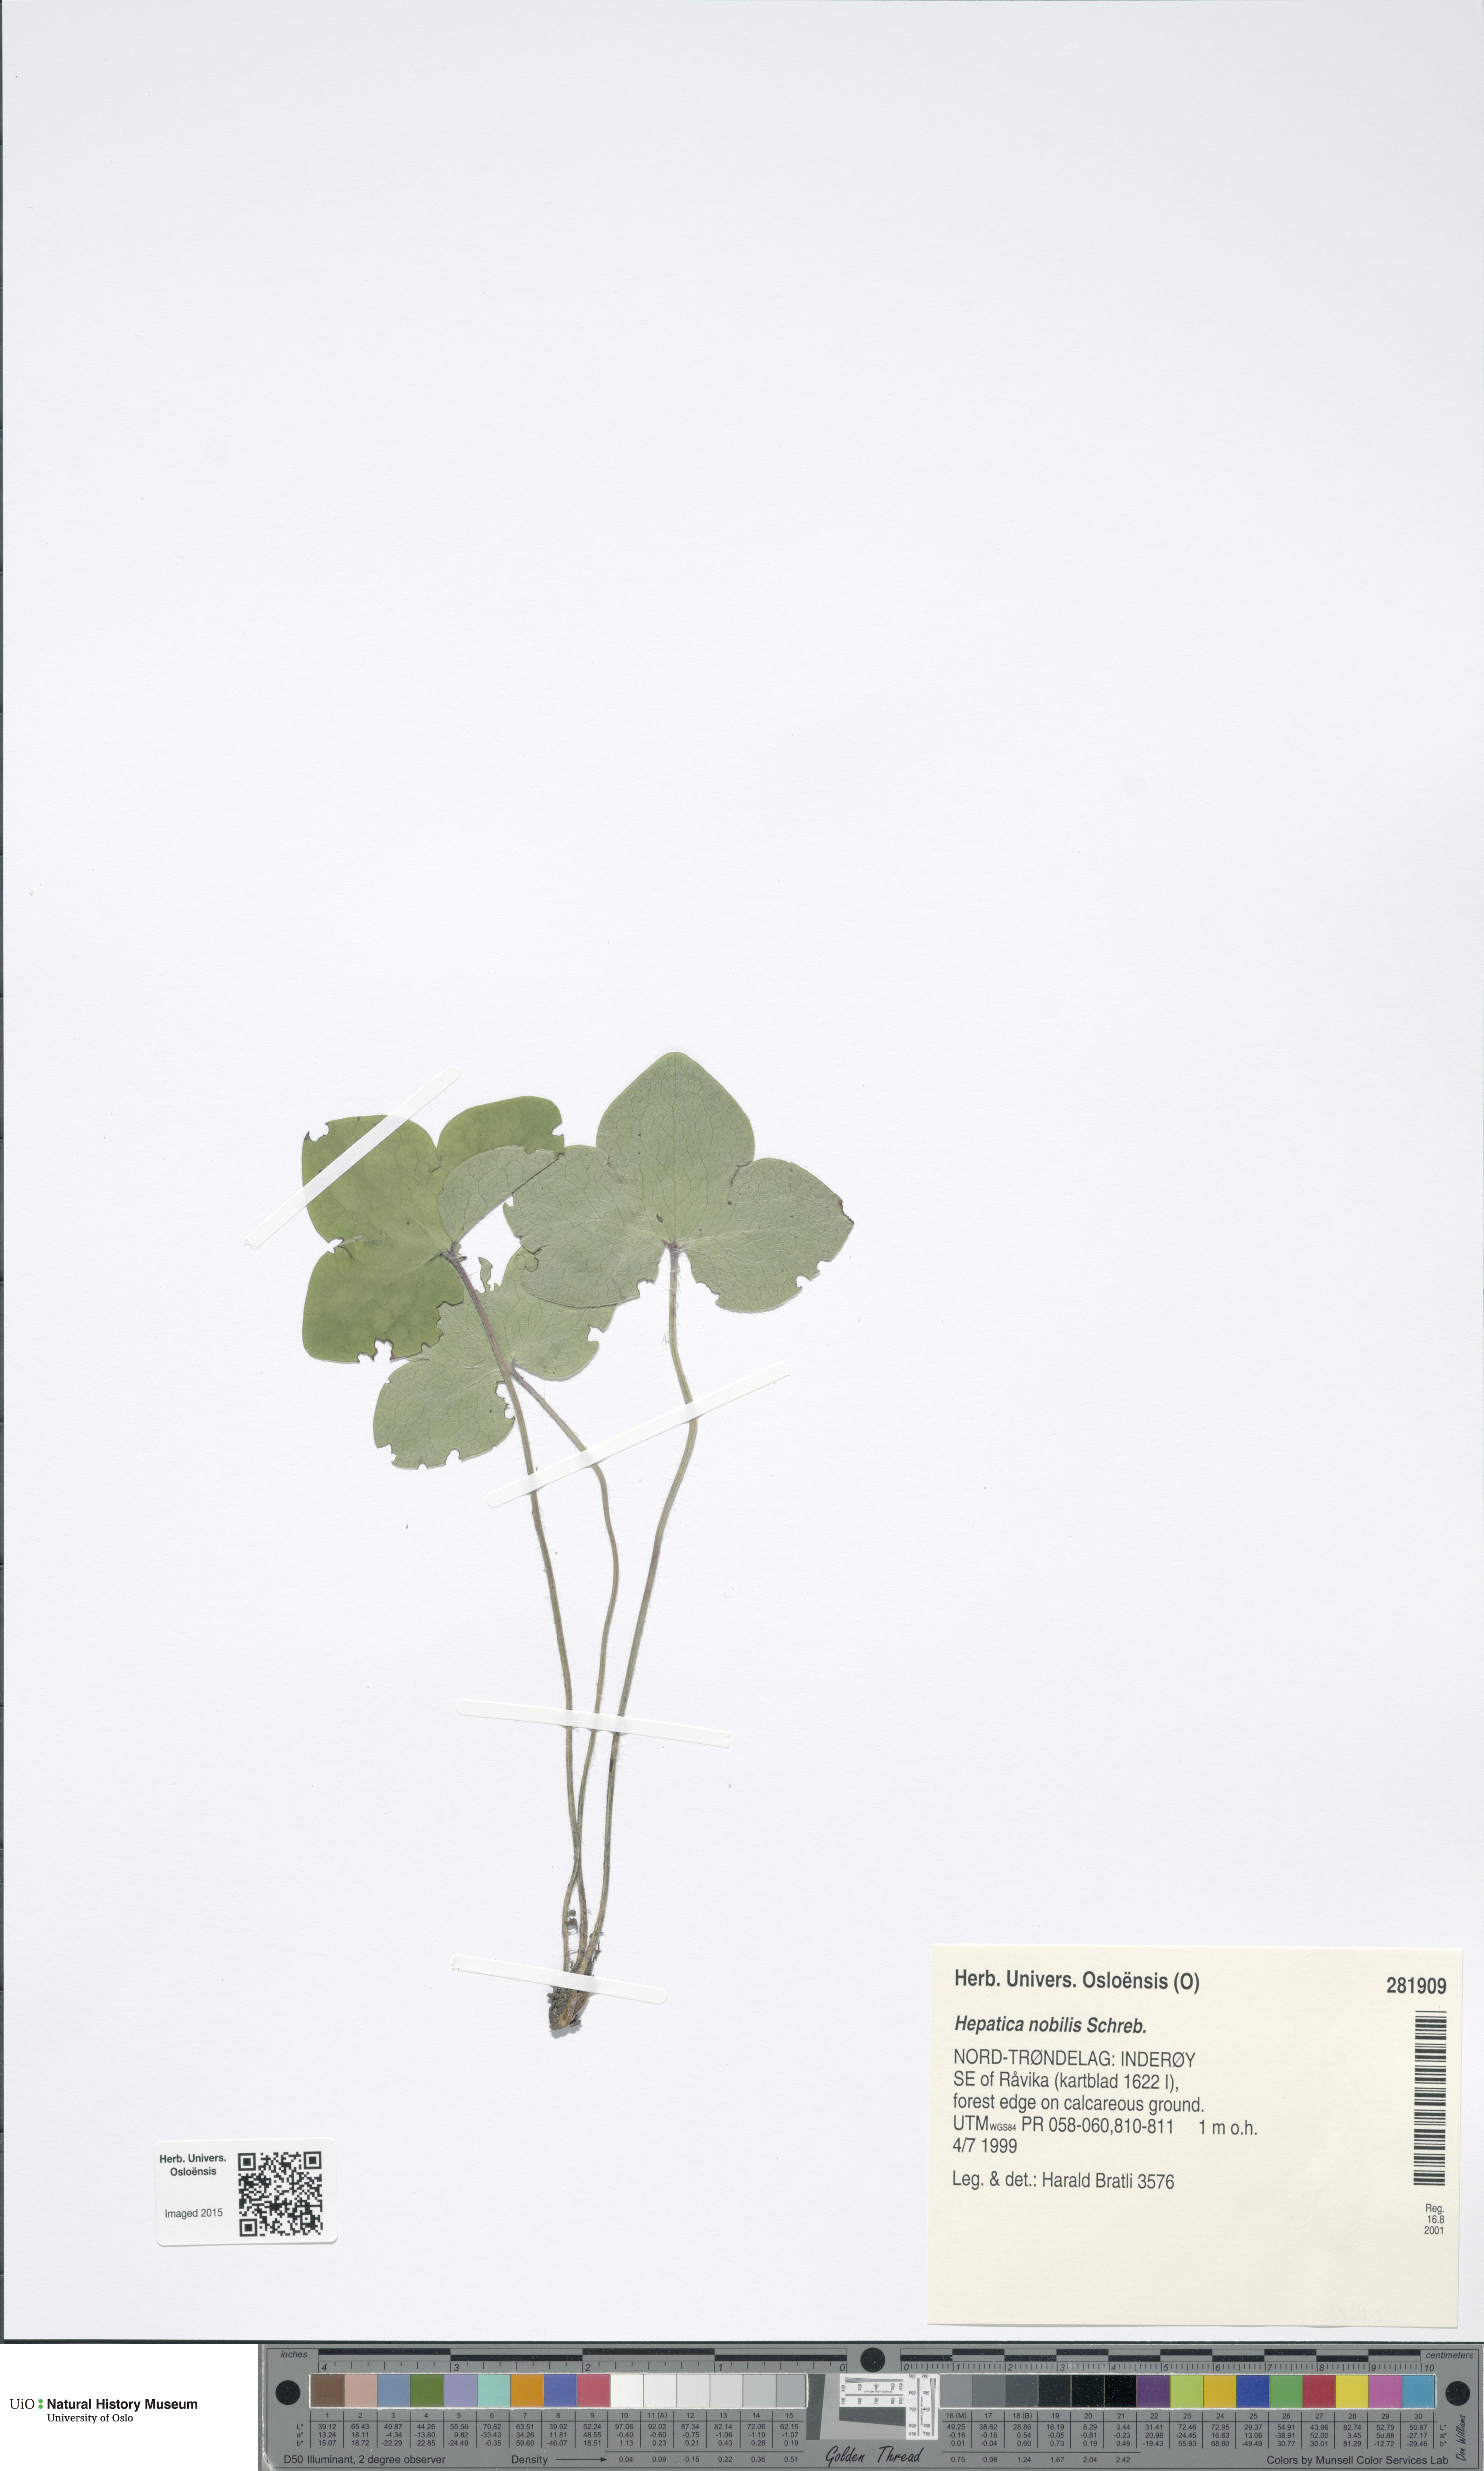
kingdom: Plantae
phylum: Tracheophyta
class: Magnoliopsida
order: Ranunculales
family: Ranunculaceae
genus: Hepatica
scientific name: Hepatica nobilis
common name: Liverleaf
